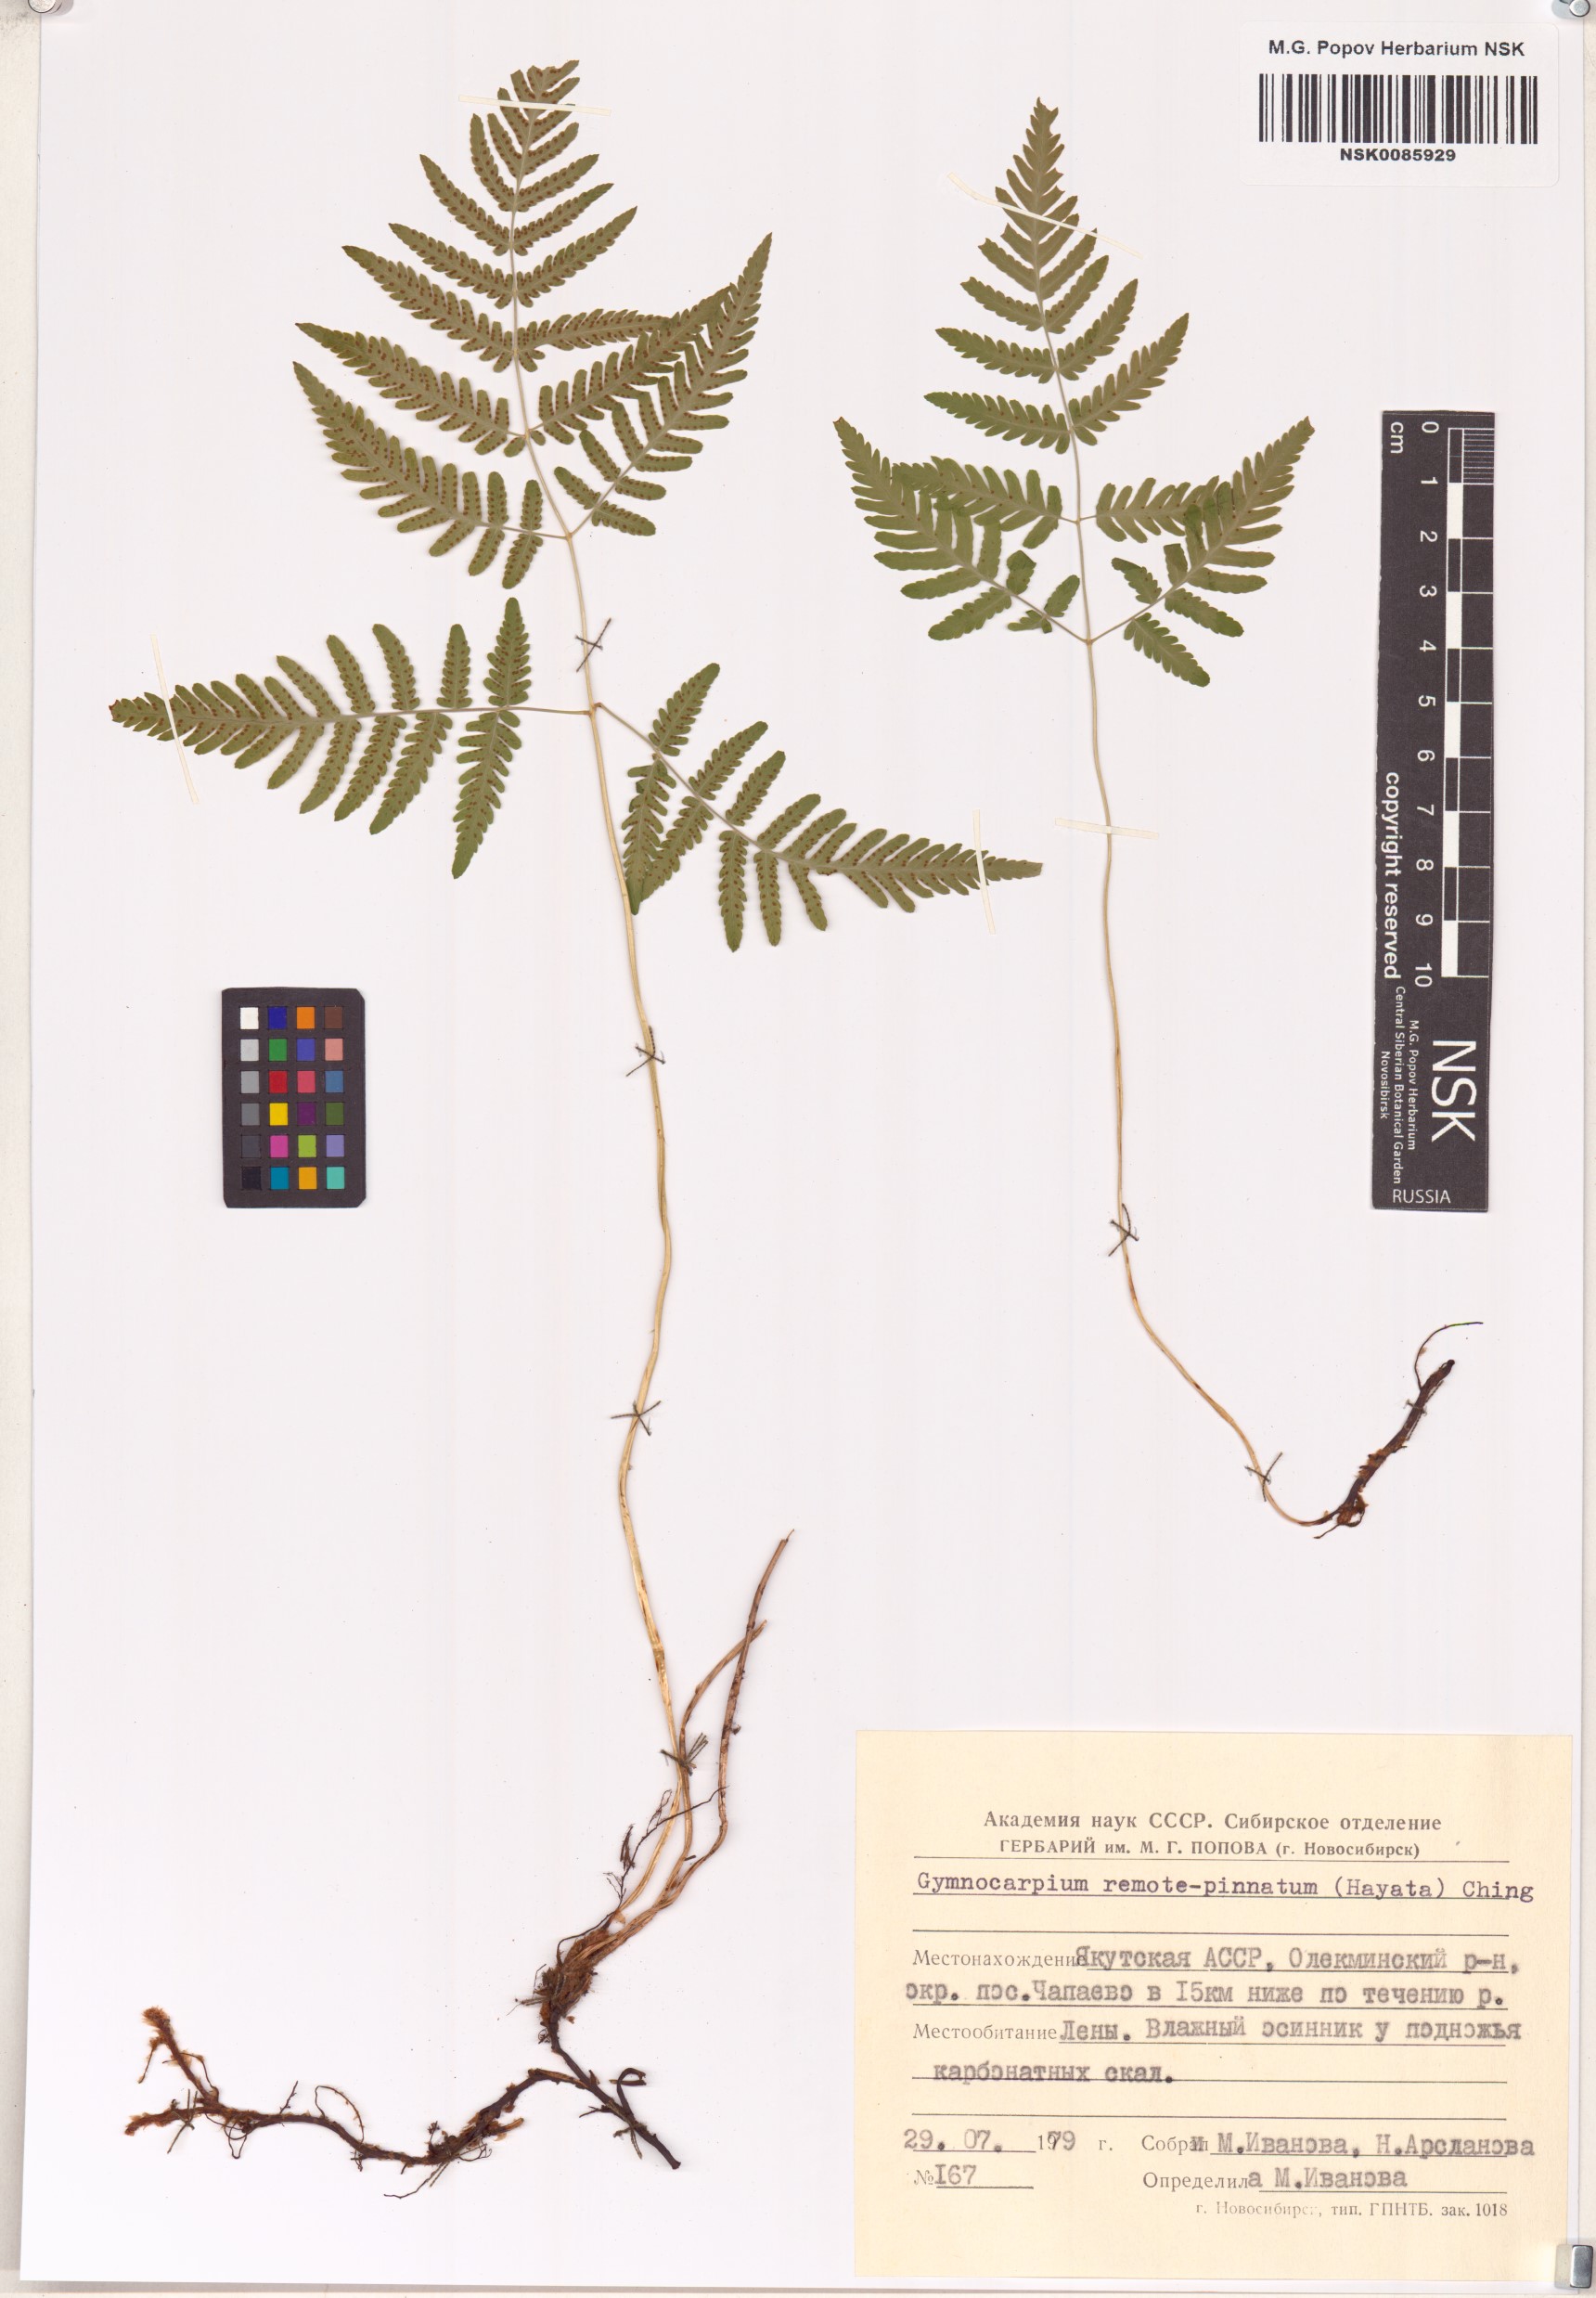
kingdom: Plantae
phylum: Tracheophyta
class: Polypodiopsida
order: Polypodiales
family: Cystopteridaceae
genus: Gymnocarpium
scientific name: Gymnocarpium remotepinnatum
